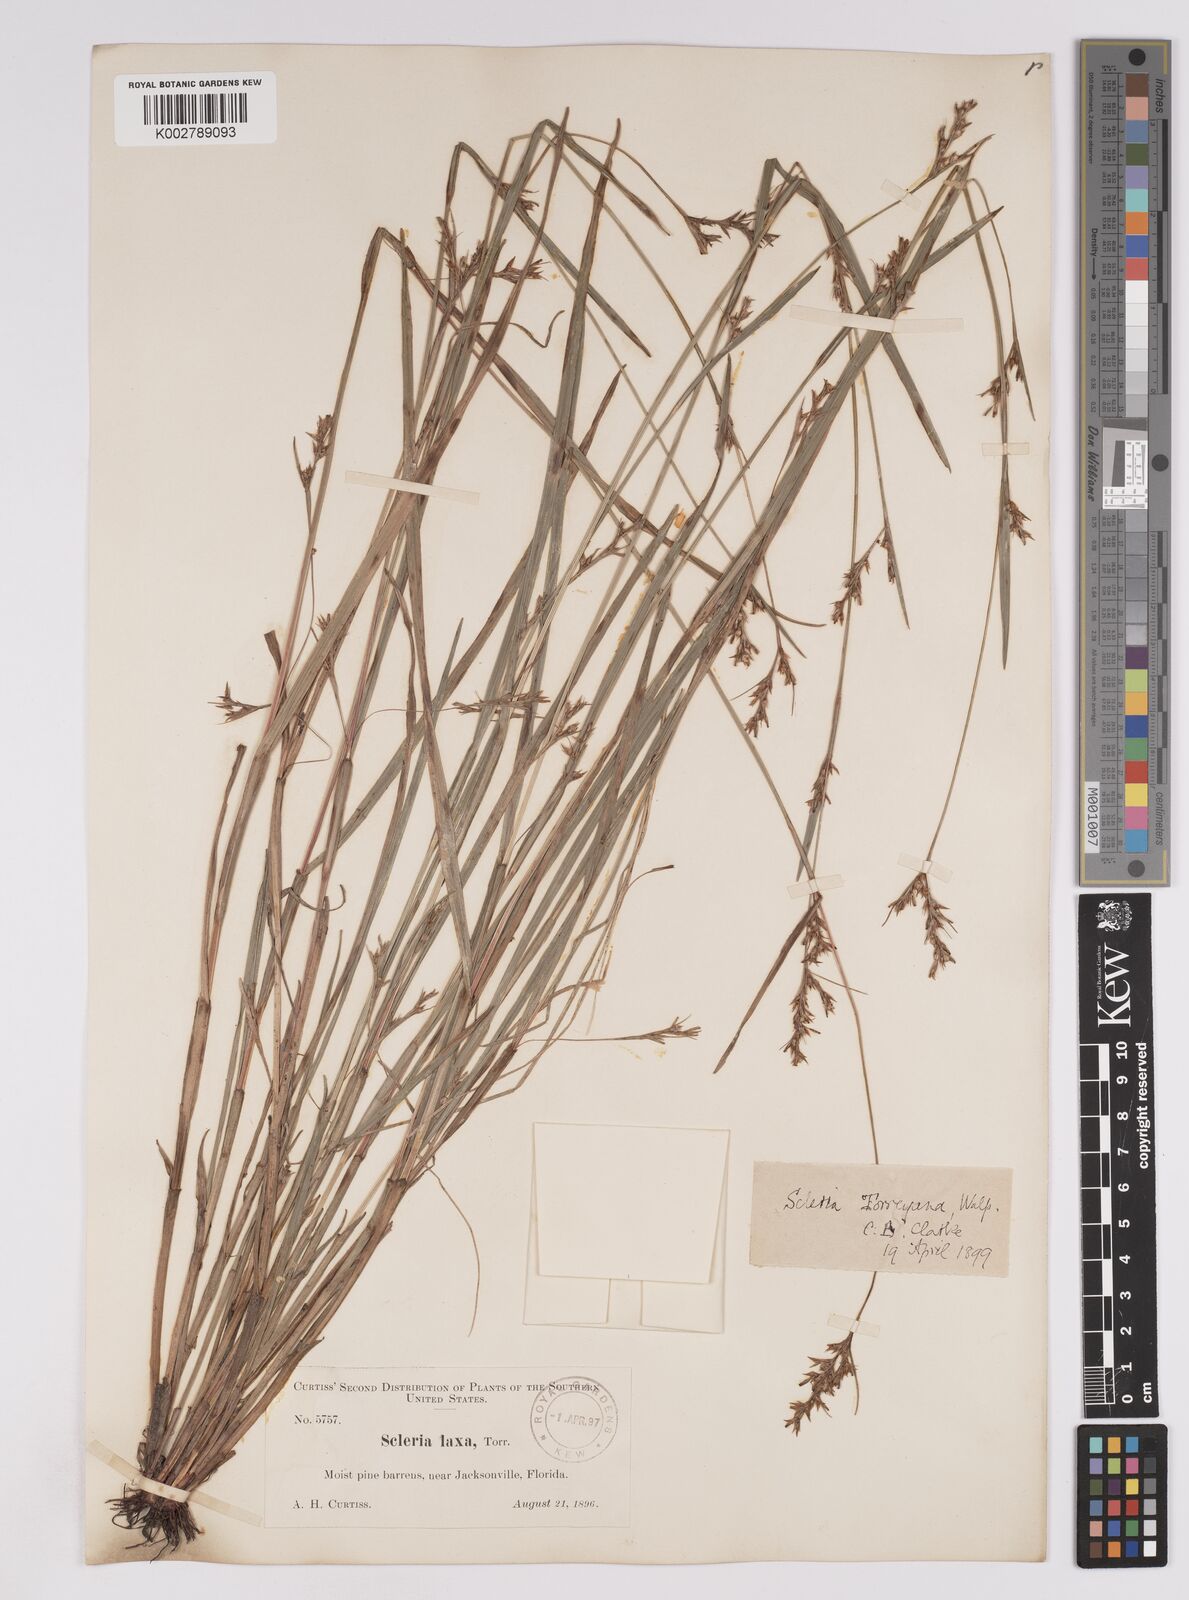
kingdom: Plantae
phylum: Tracheophyta
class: Liliopsida
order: Poales
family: Cyperaceae
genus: Scleria
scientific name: Scleria muehlenbergii
